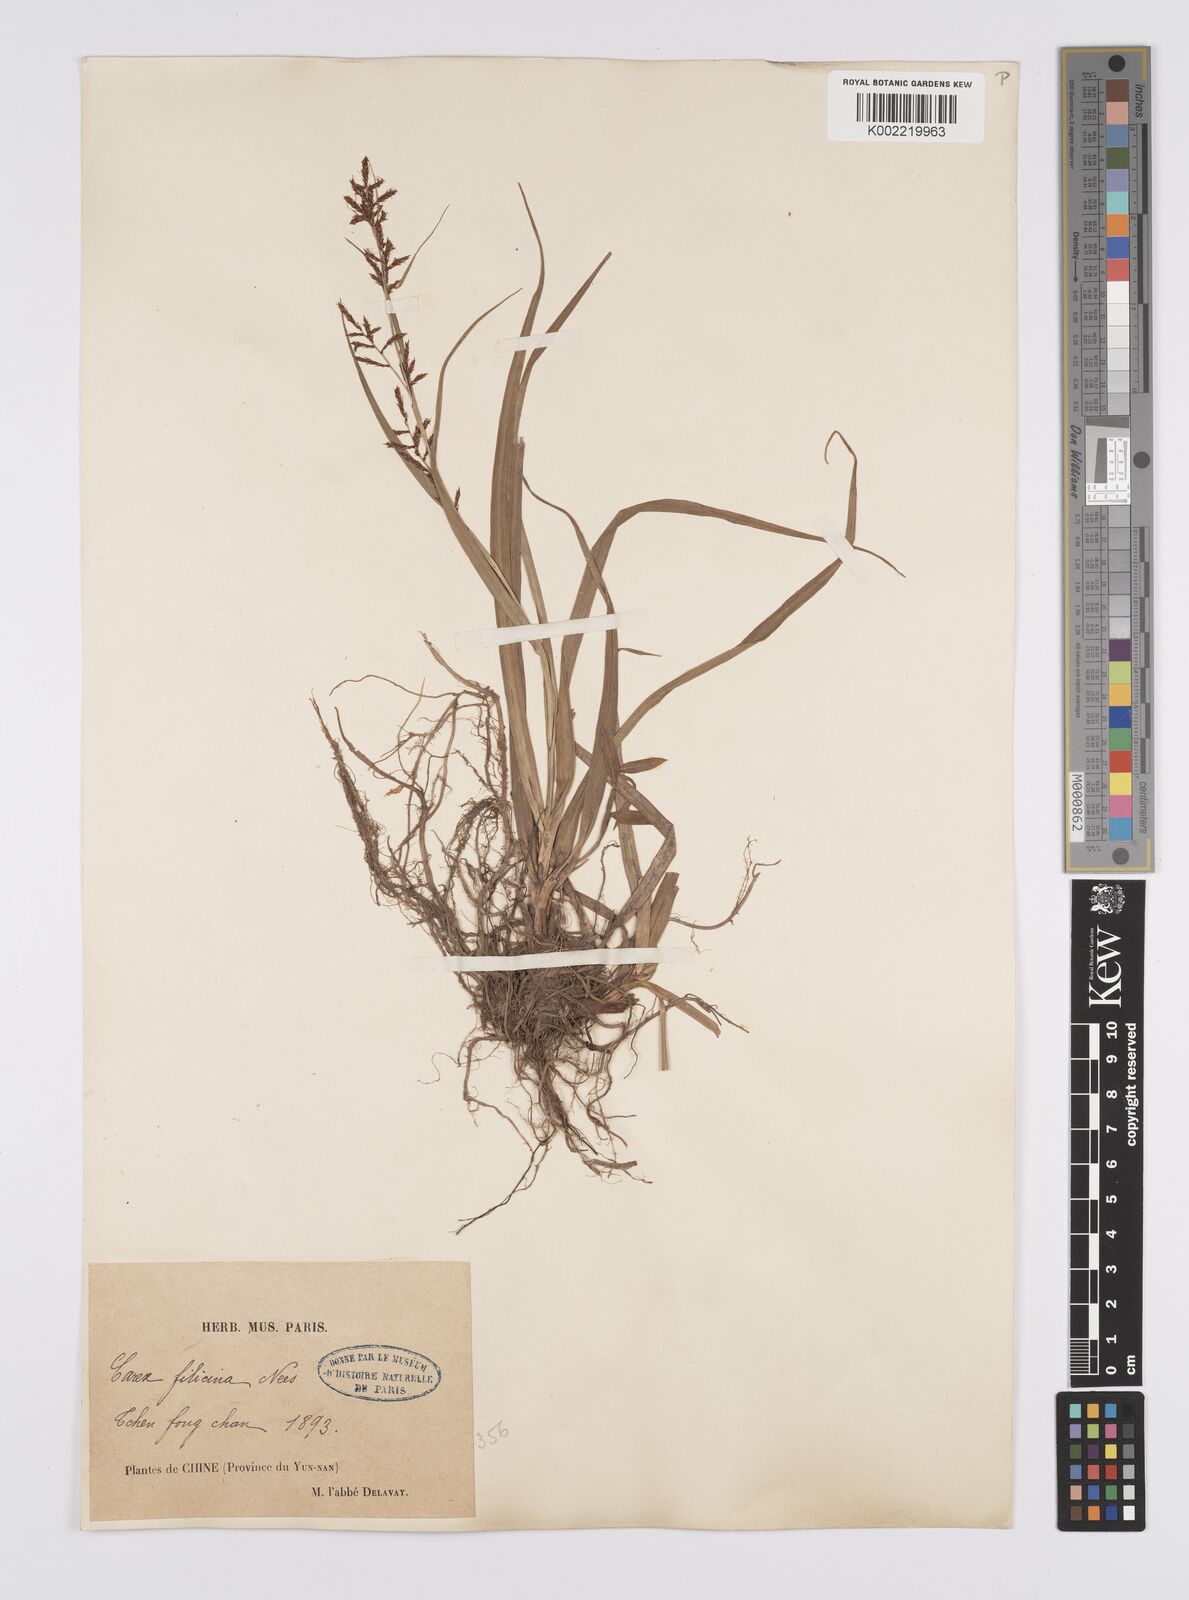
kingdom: Plantae
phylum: Tracheophyta
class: Liliopsida
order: Poales
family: Cyperaceae
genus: Carex
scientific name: Carex filicina
